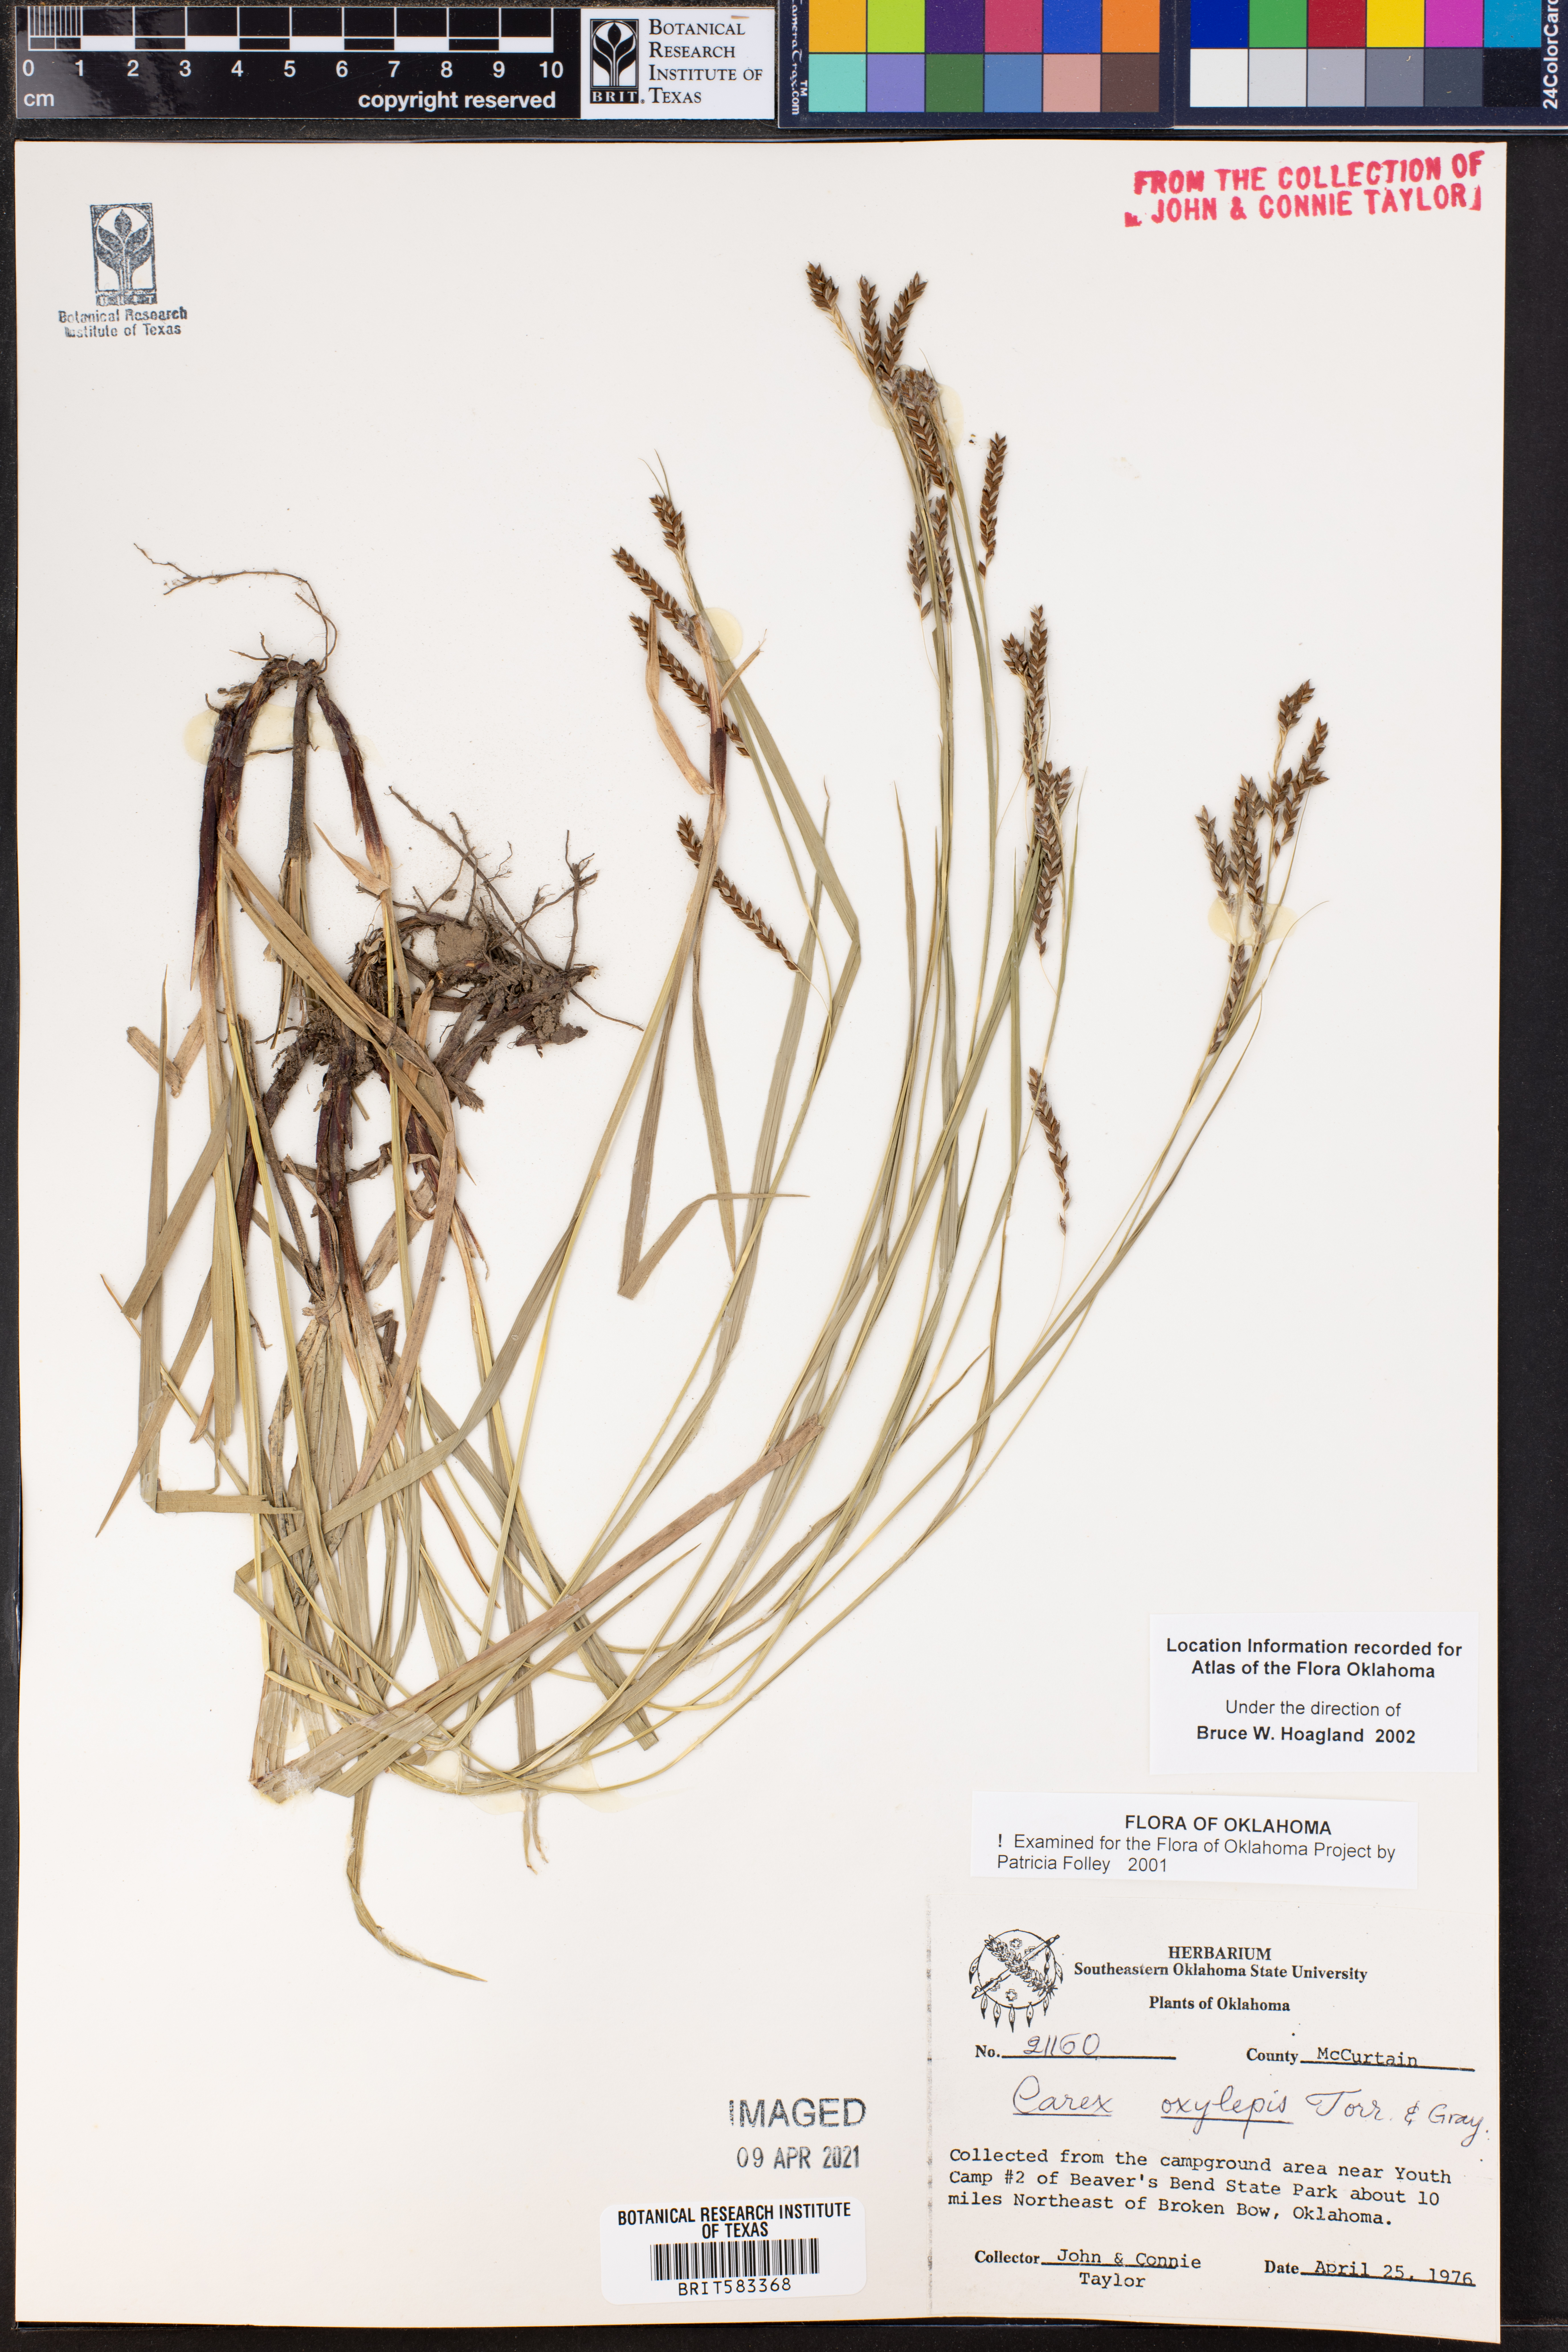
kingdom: Plantae
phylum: Tracheophyta
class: Liliopsida
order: Poales
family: Cyperaceae
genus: Carex
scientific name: Carex oxyandra
